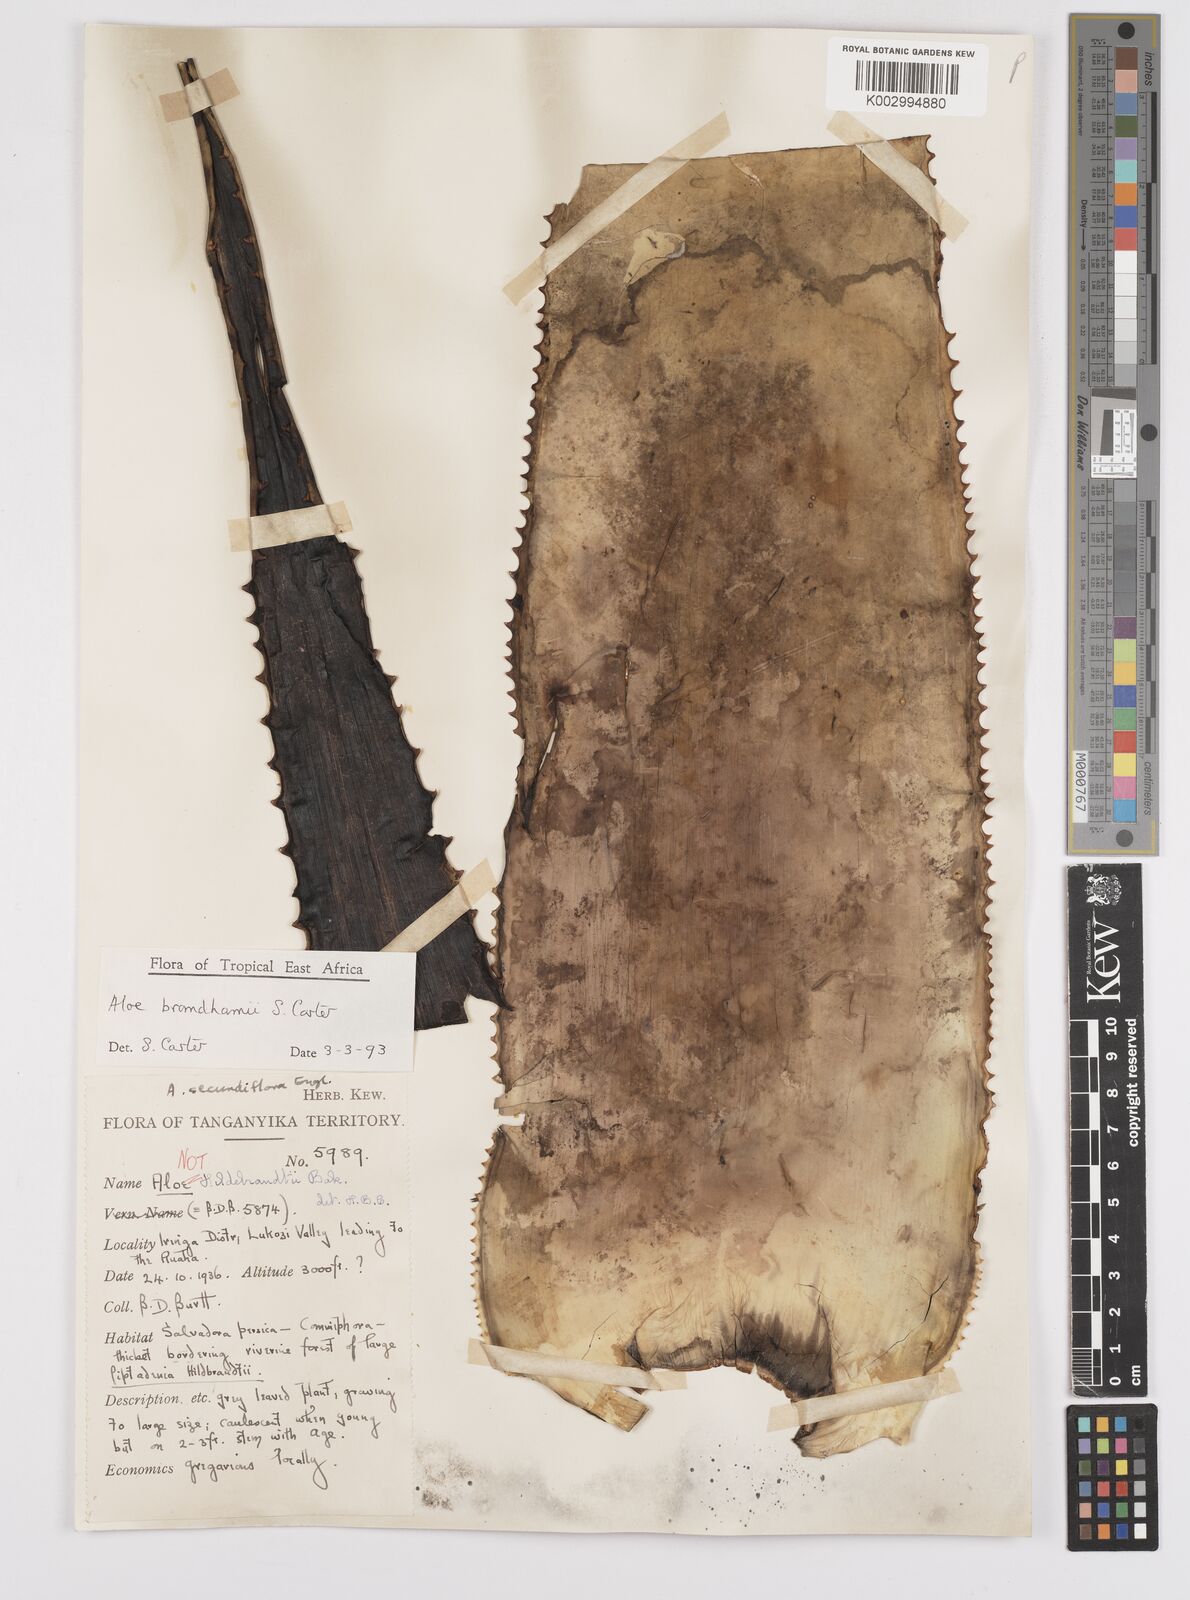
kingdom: Plantae
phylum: Tracheophyta
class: Liliopsida
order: Asparagales
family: Asphodelaceae
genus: Aloe
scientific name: Aloe brandhamii
